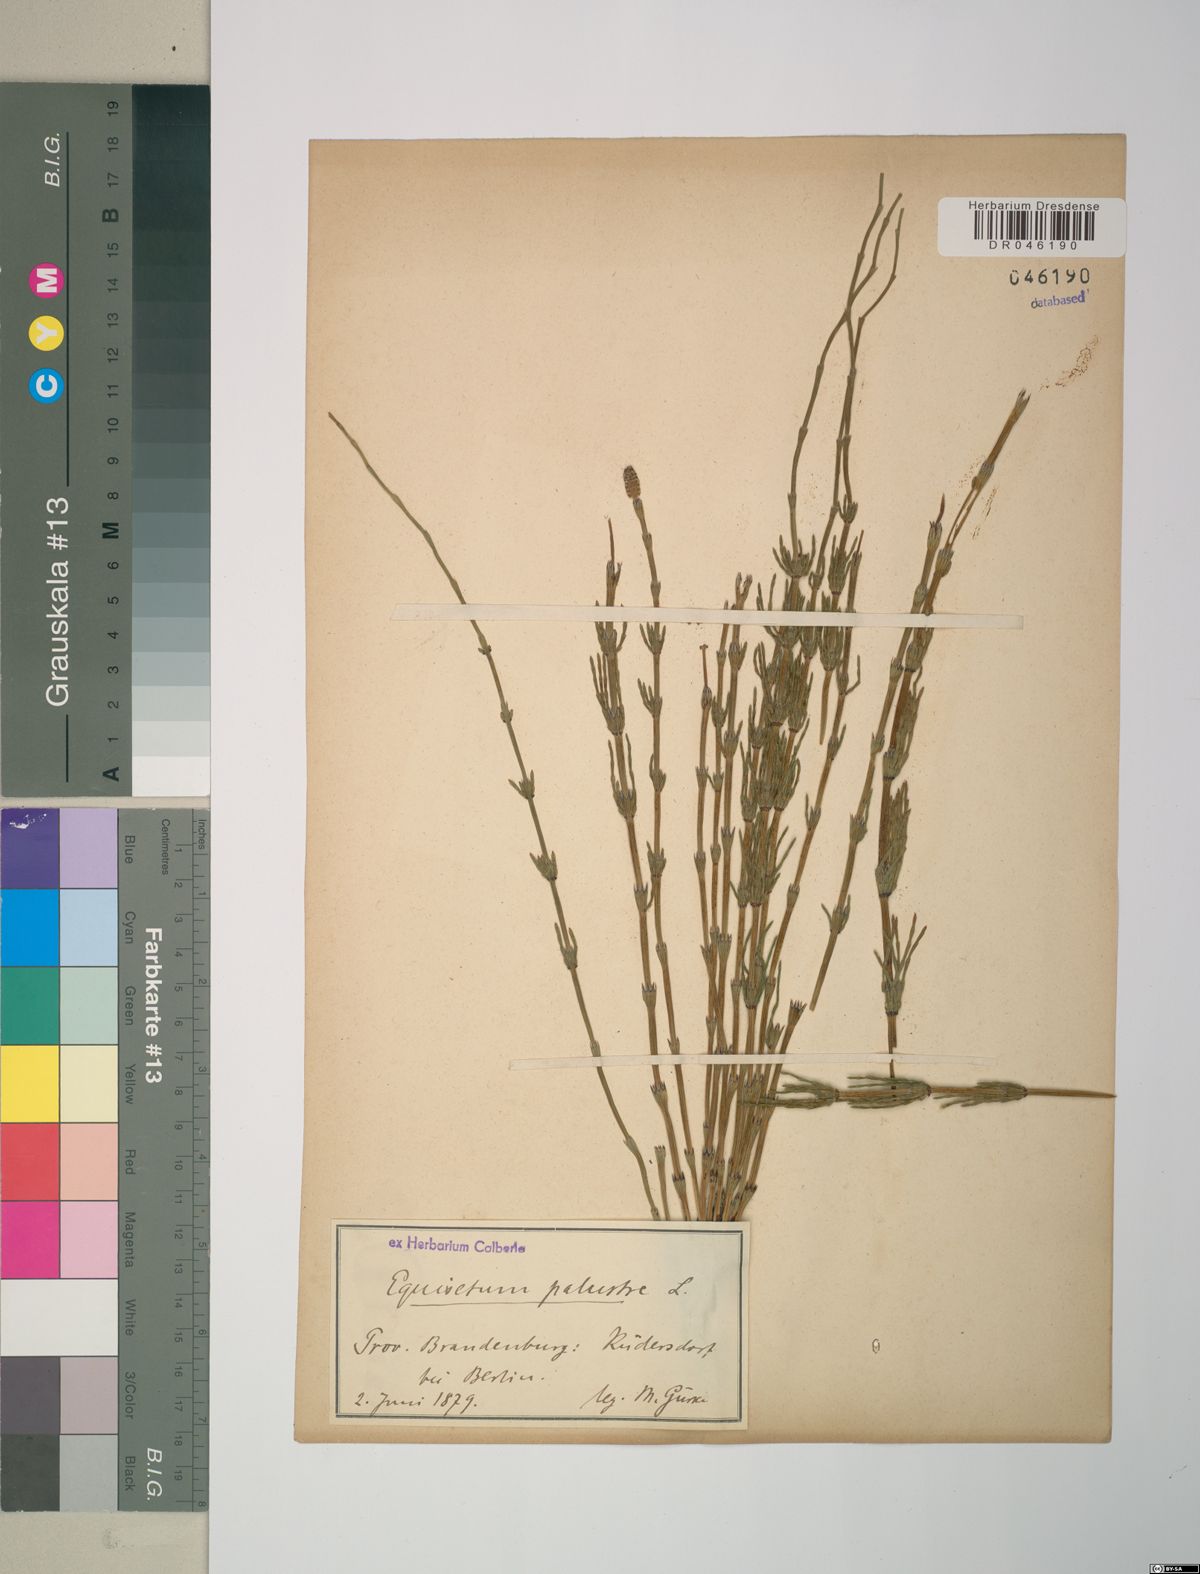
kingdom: Plantae
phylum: Tracheophyta
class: Polypodiopsida
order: Equisetales
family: Equisetaceae
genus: Equisetum
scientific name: Equisetum palustre
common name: Marsh horsetail
